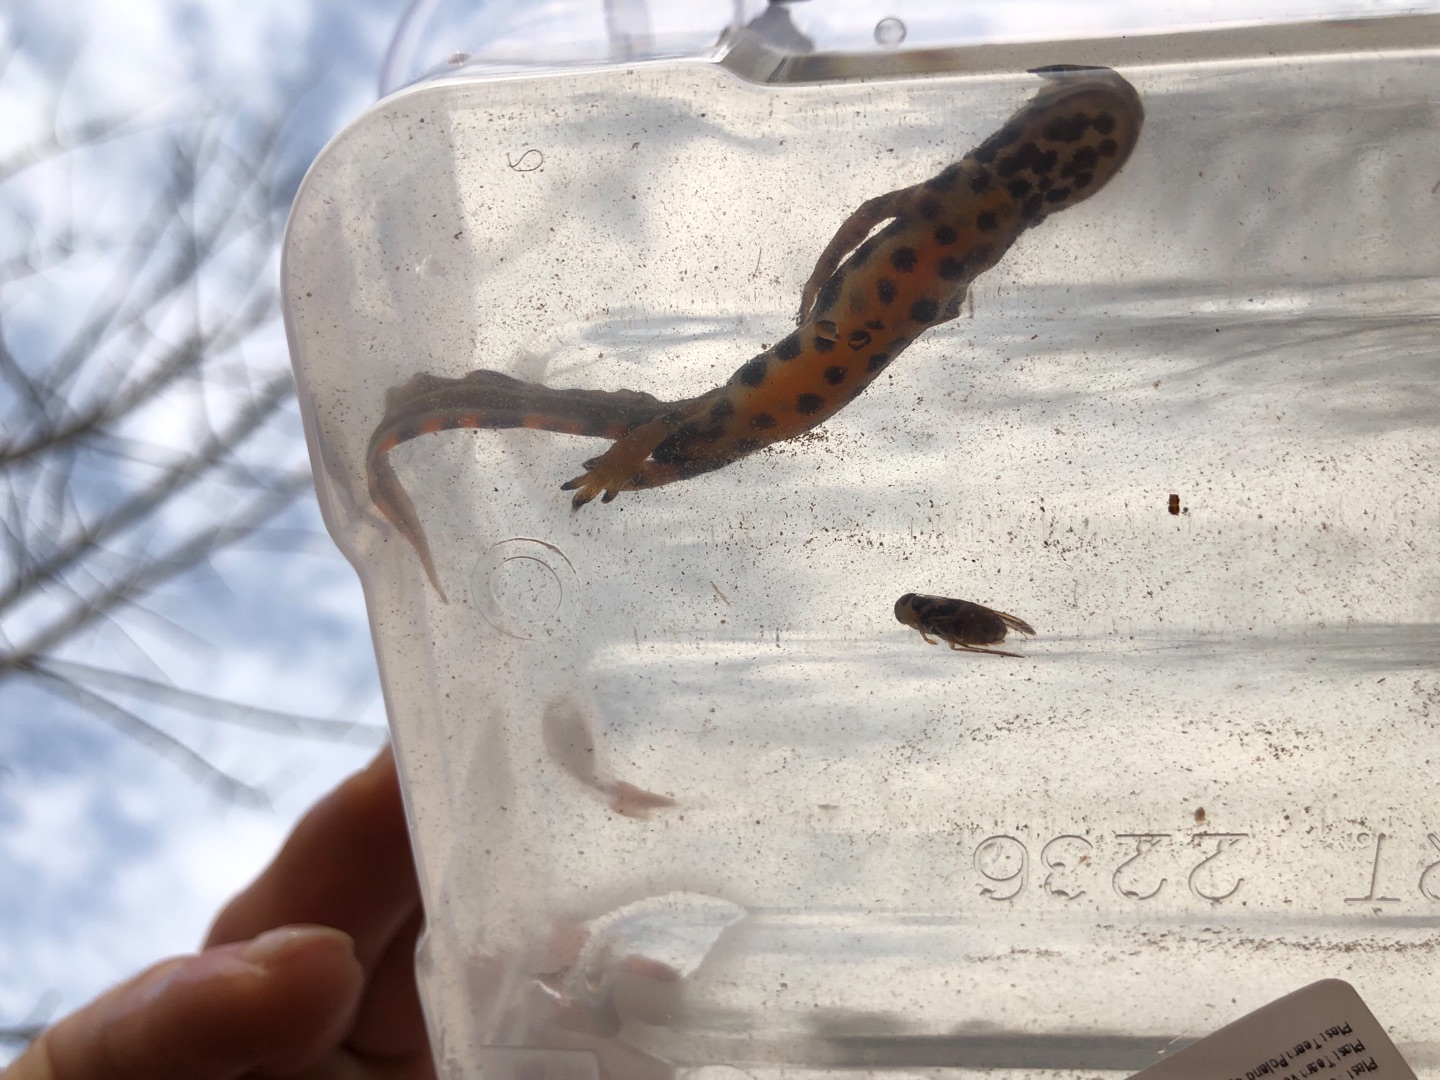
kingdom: Animalia
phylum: Chordata
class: Amphibia
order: Caudata
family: Salamandridae
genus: Lissotriton
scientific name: Lissotriton vulgaris
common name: Lille vandsalamander
